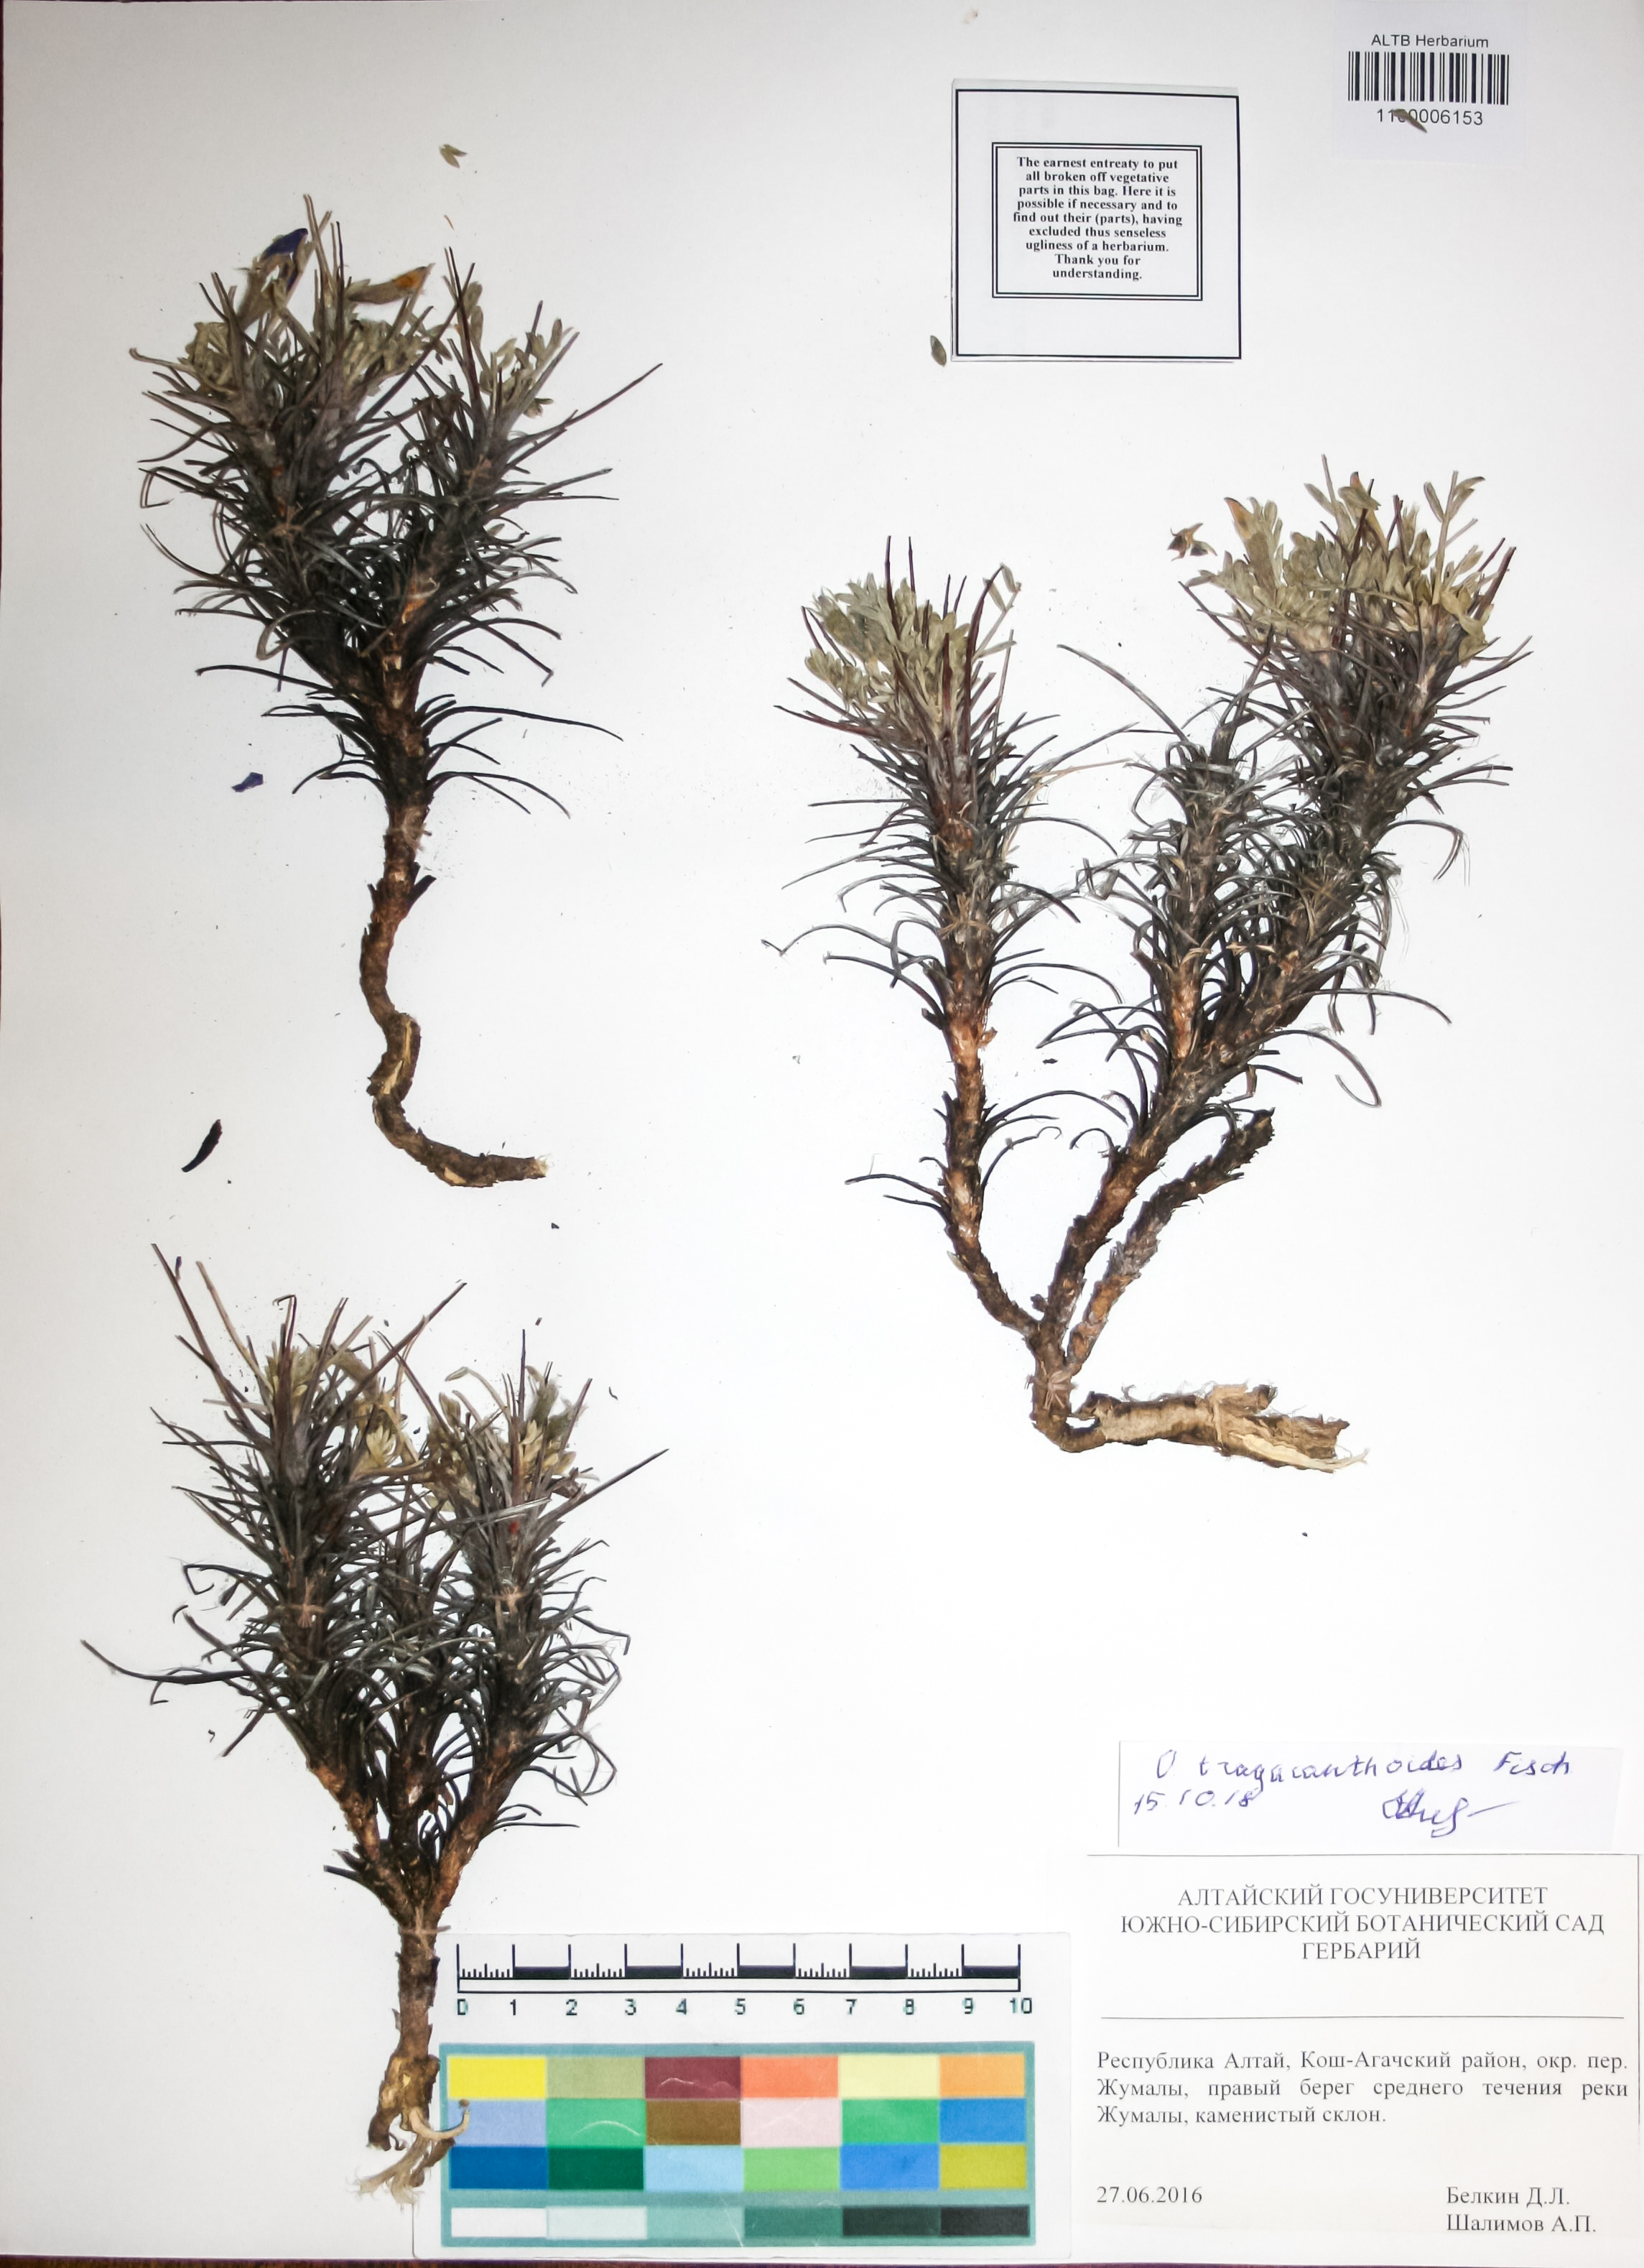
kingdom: Plantae
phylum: Tracheophyta
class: Magnoliopsida
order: Fabales
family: Fabaceae
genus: Oxytropis
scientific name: Oxytropis tragacanthoides
